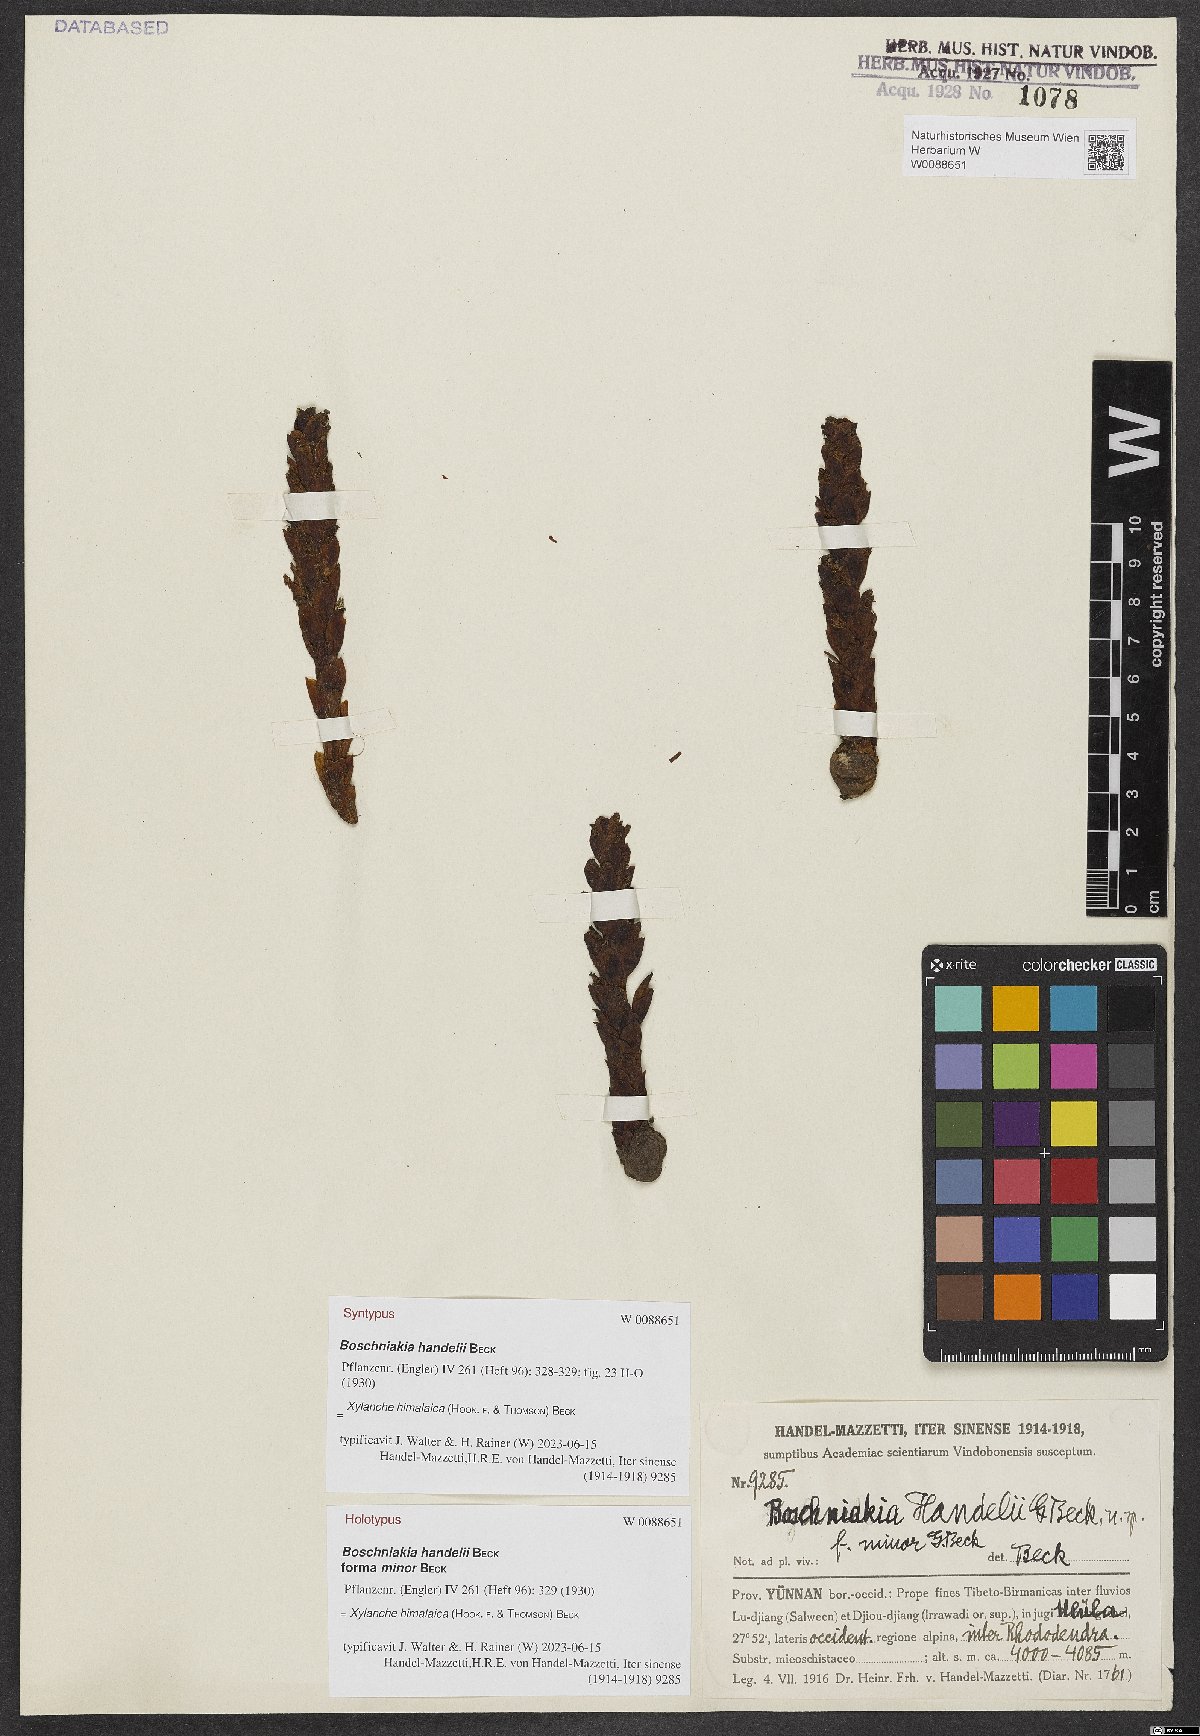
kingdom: Plantae
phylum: Tracheophyta
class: Magnoliopsida
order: Lamiales
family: Orobanchaceae
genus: Boschniakia
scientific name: Boschniakia himalaica
